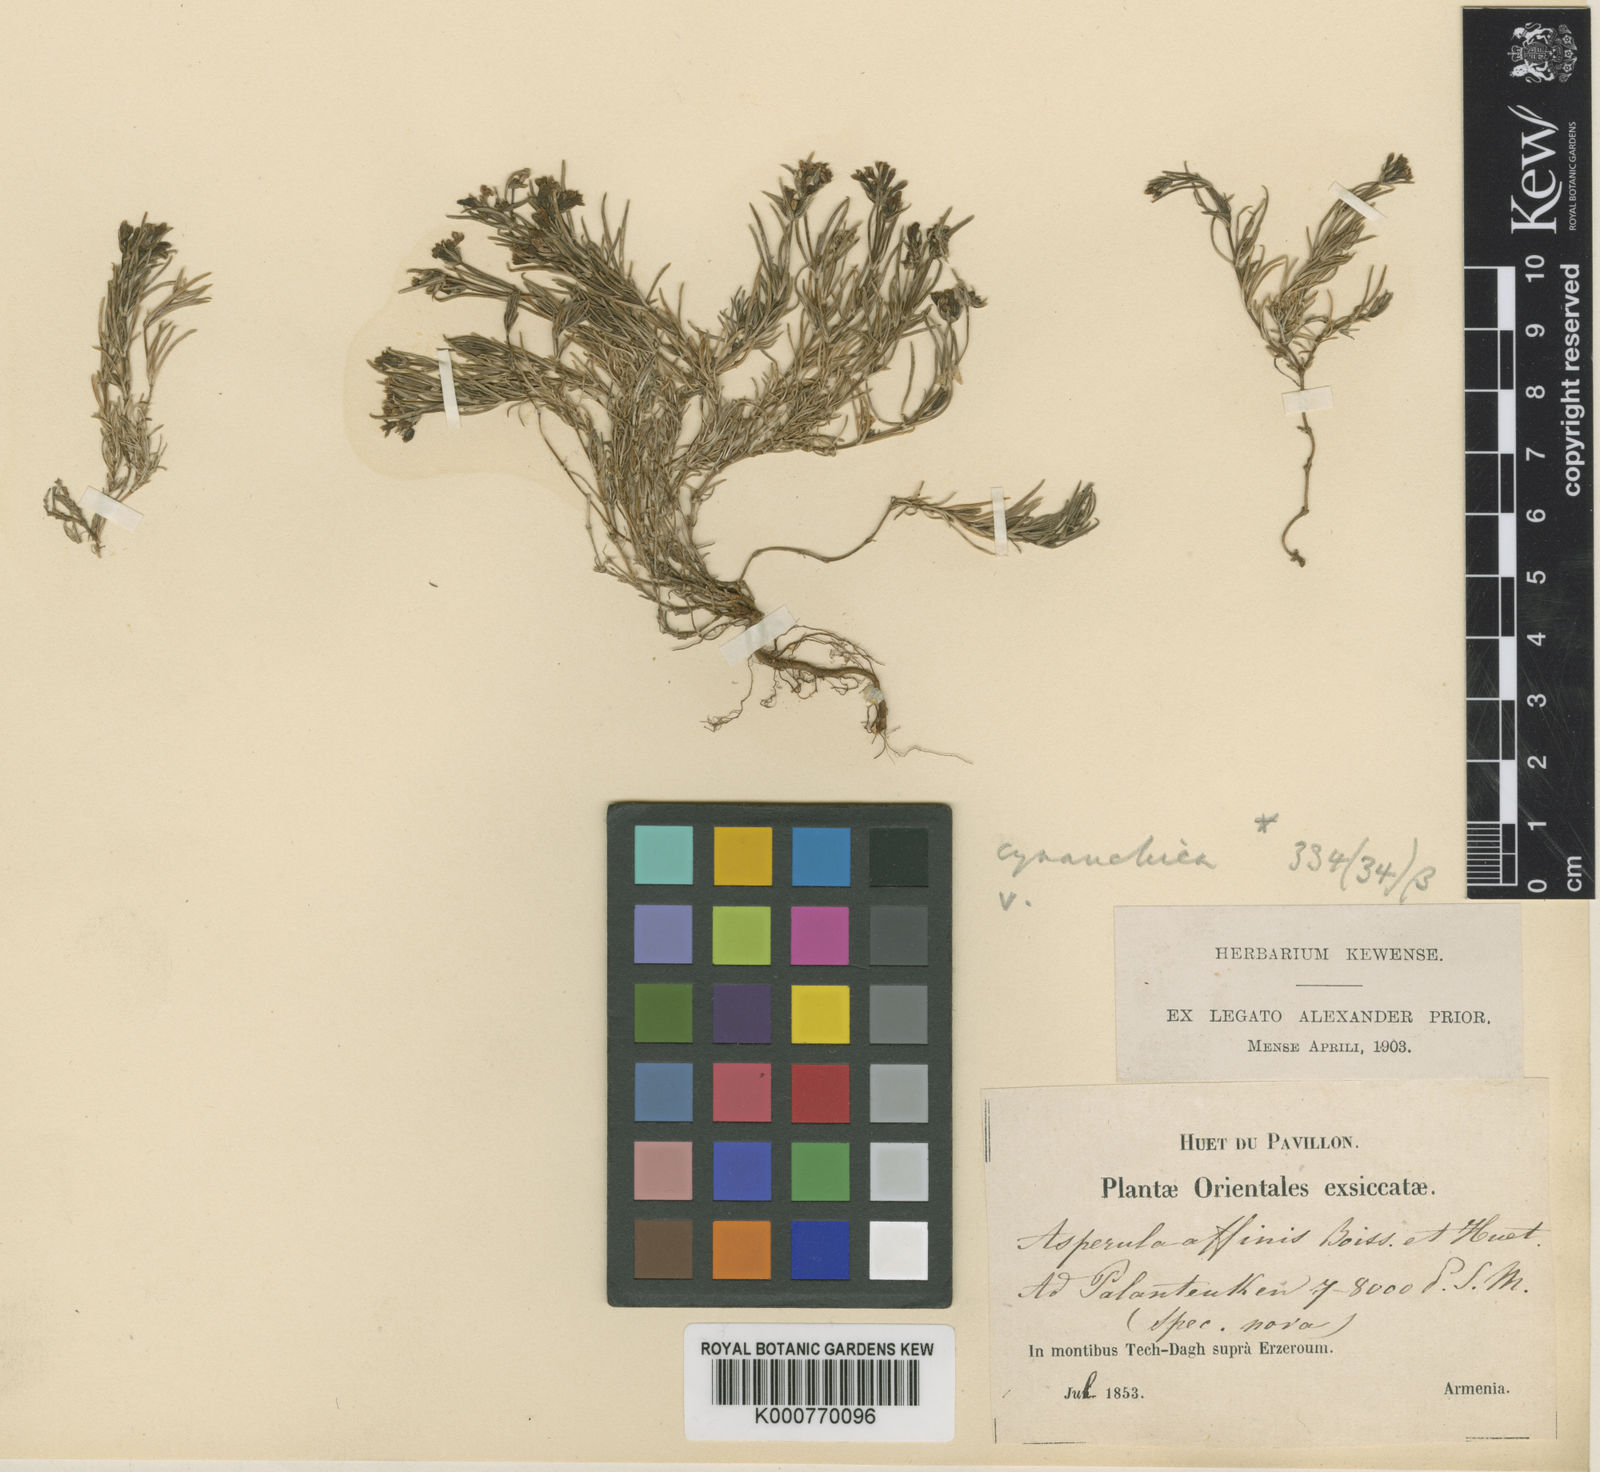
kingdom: Plantae
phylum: Tracheophyta
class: Magnoliopsida
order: Gentianales
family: Rubiaceae
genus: Cynanchica
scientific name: Cynanchica affinis
